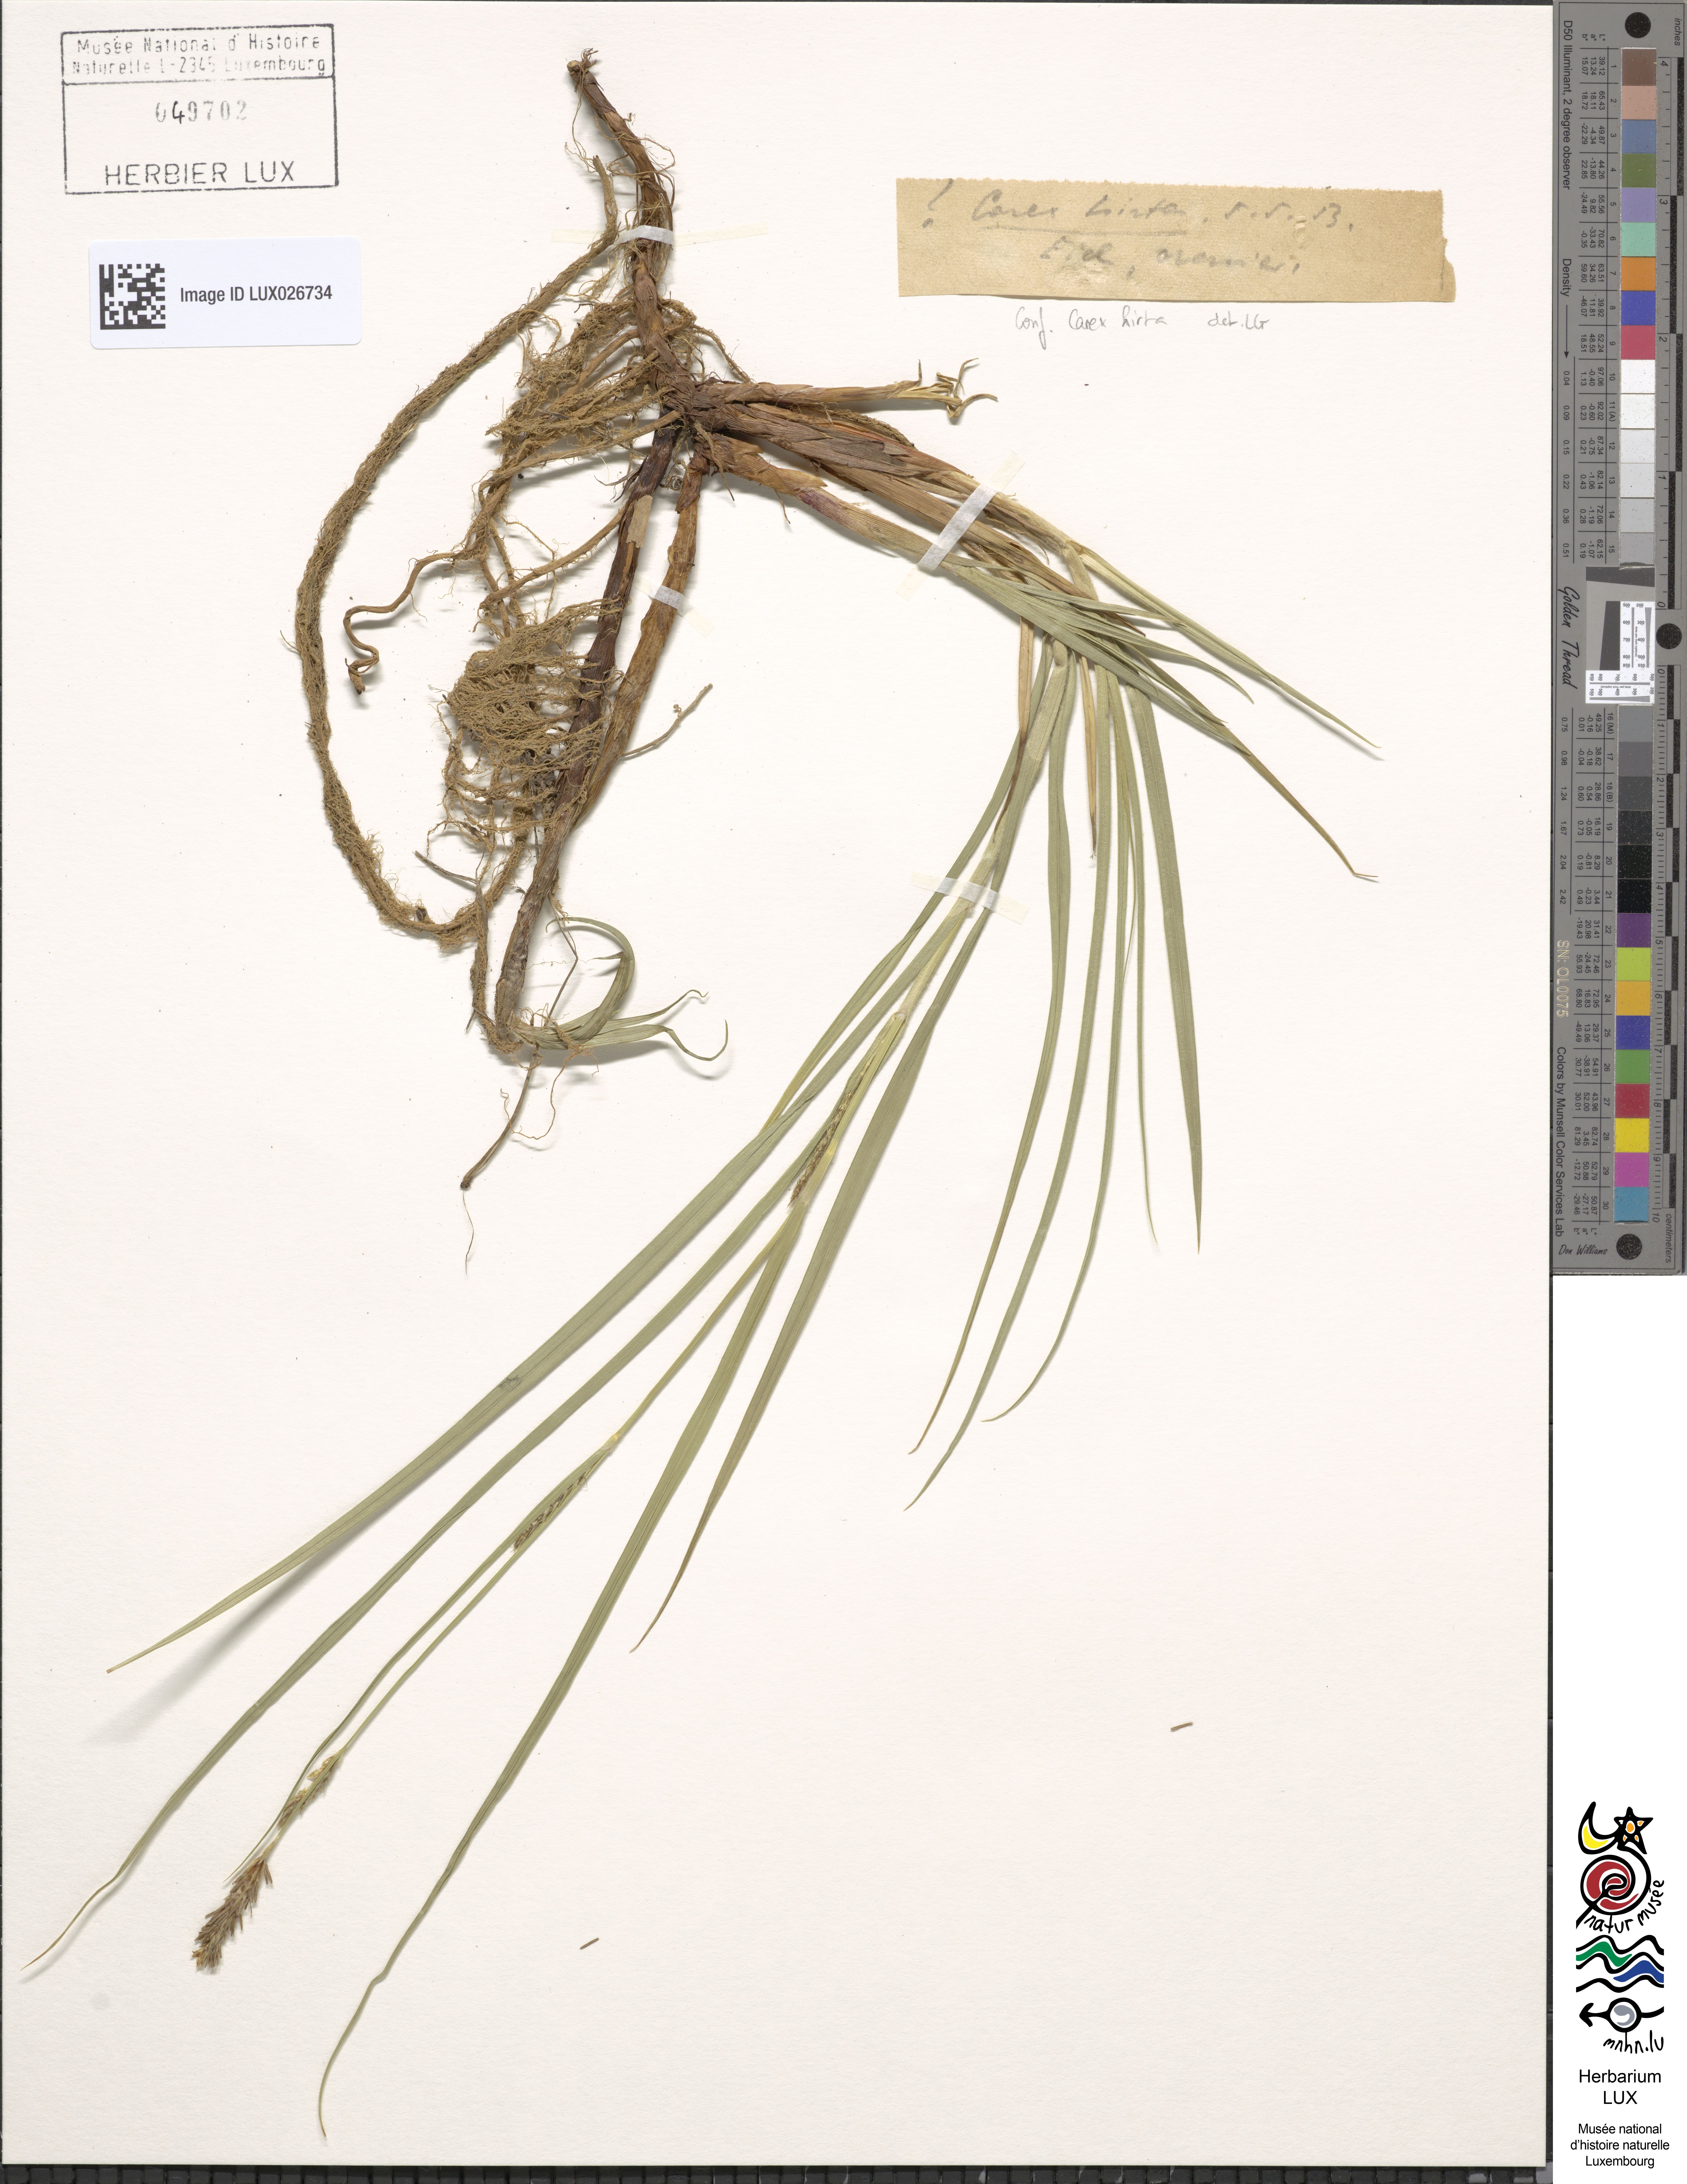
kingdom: Plantae
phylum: Tracheophyta
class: Liliopsida
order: Poales
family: Cyperaceae
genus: Carex
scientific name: Carex hirta
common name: Hairy sedge
